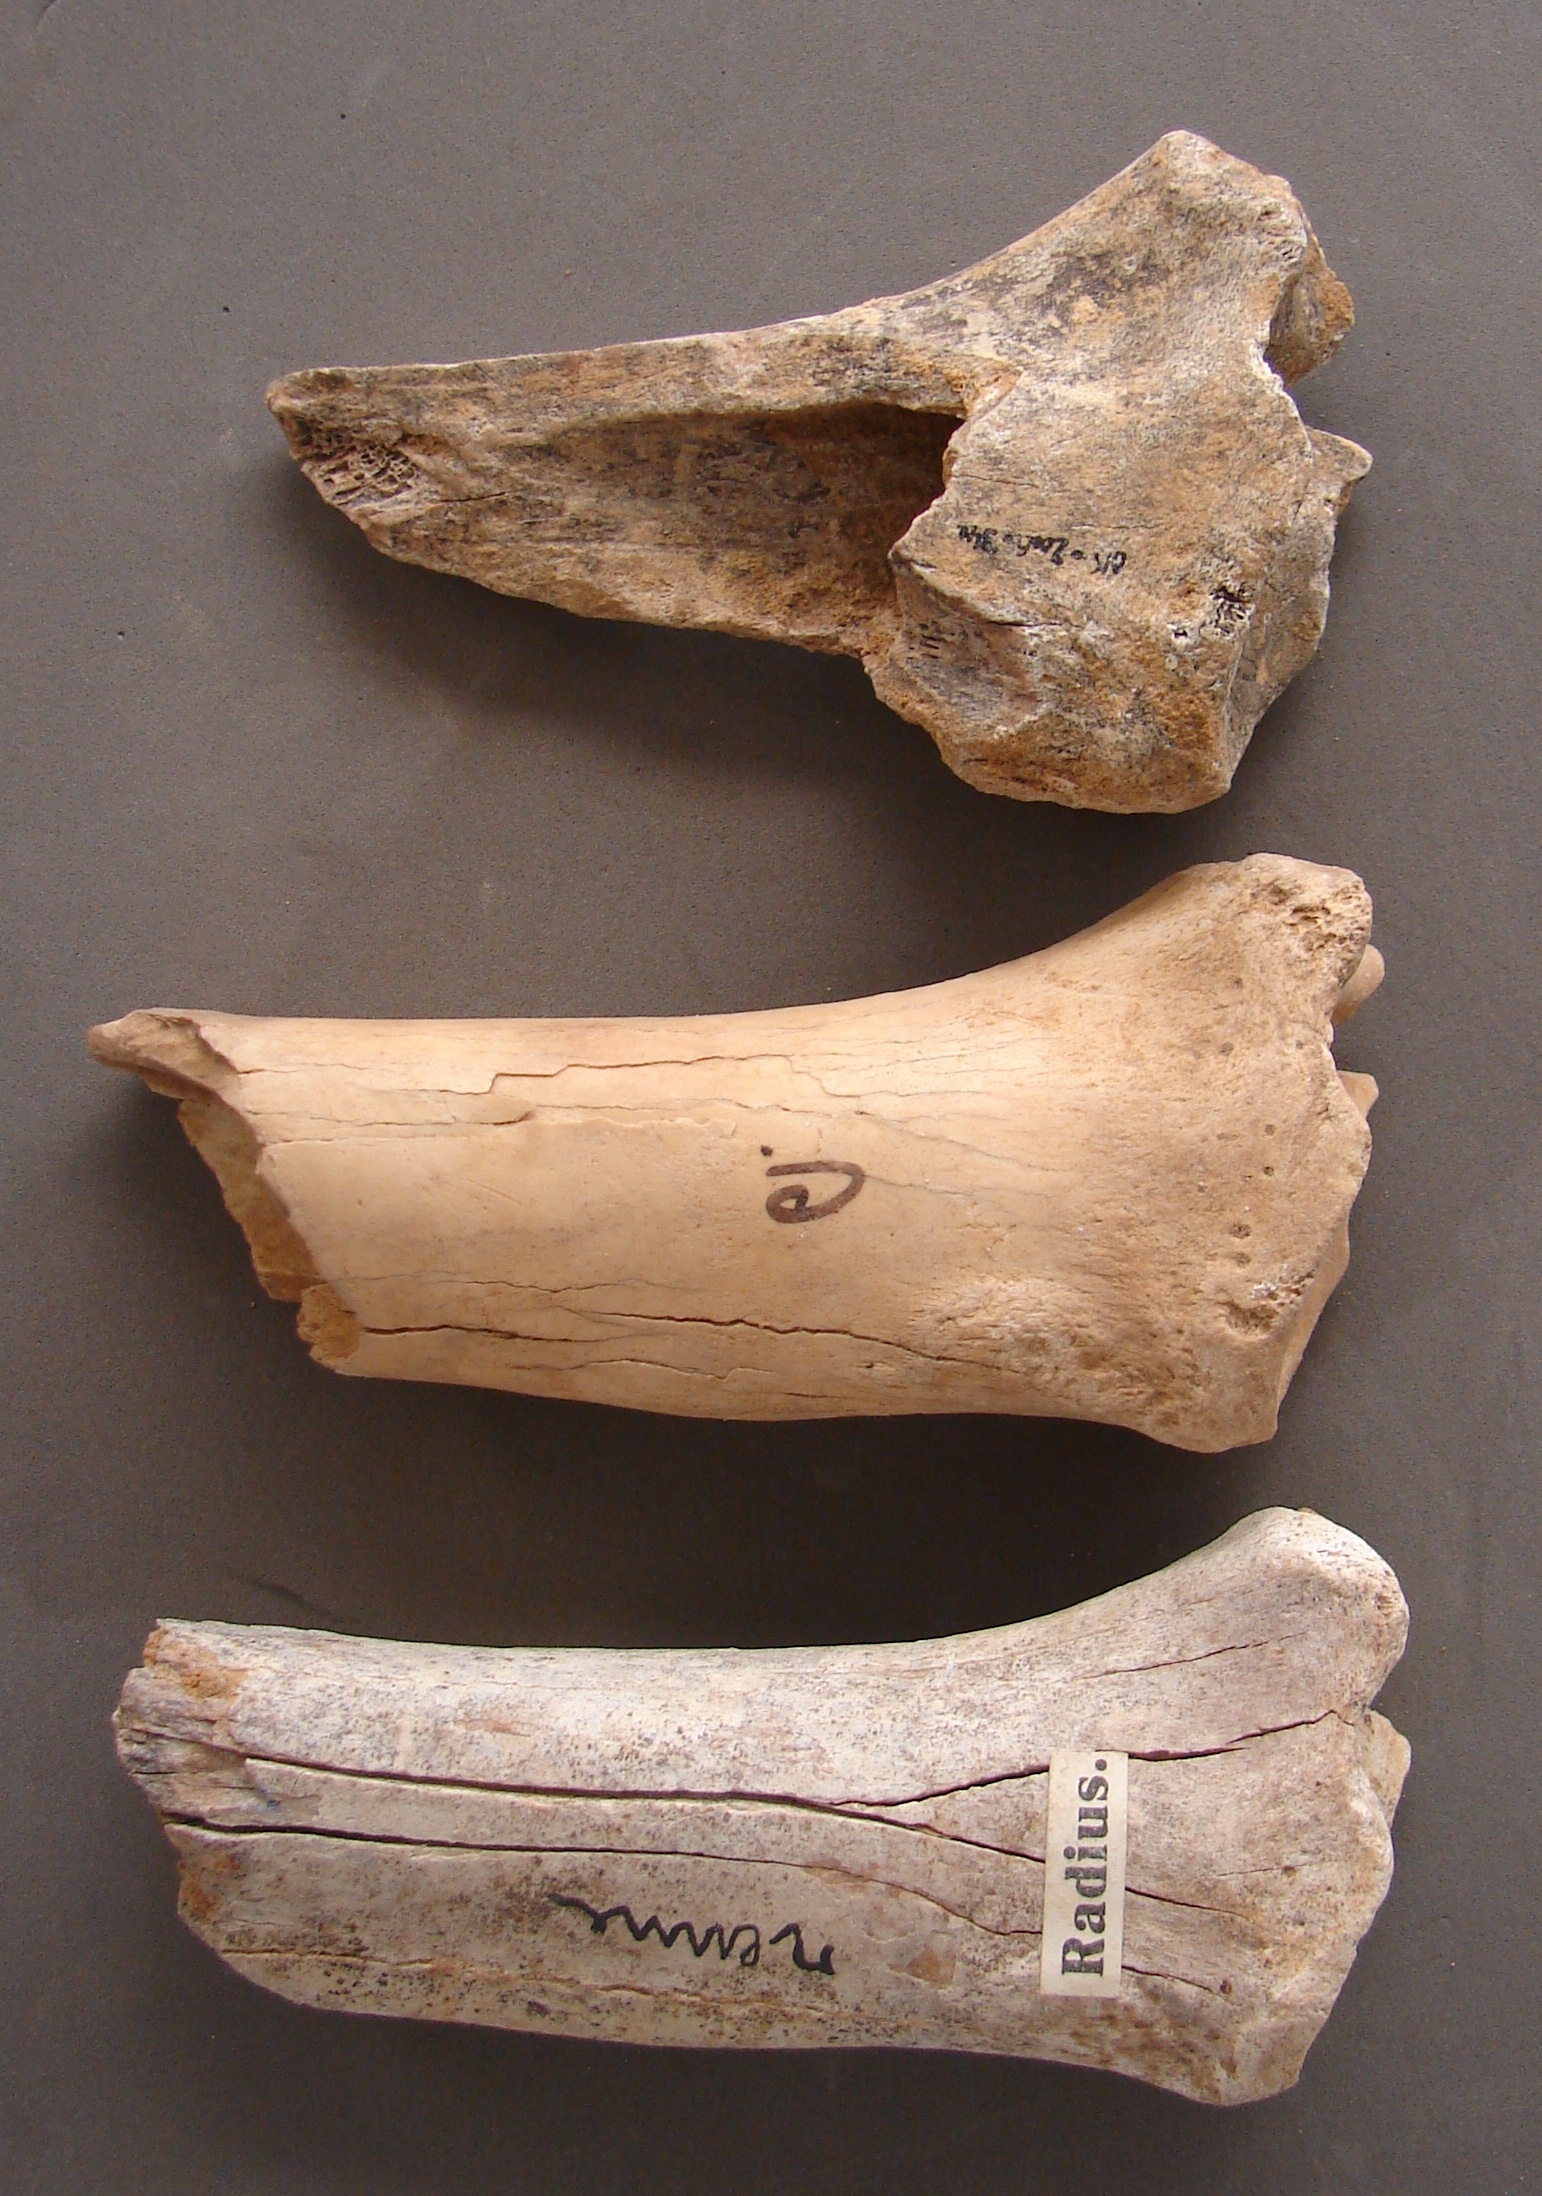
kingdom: Animalia
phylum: Chordata
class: Mammalia
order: Artiodactyla
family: Cervidae
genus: Rangifer
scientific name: Rangifer tarandus
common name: Reindeer
